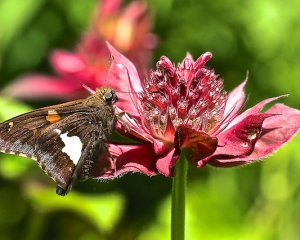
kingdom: Animalia
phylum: Arthropoda
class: Insecta
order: Lepidoptera
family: Hesperiidae
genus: Epargyreus
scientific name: Epargyreus clarus
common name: Silver-spotted Skipper
